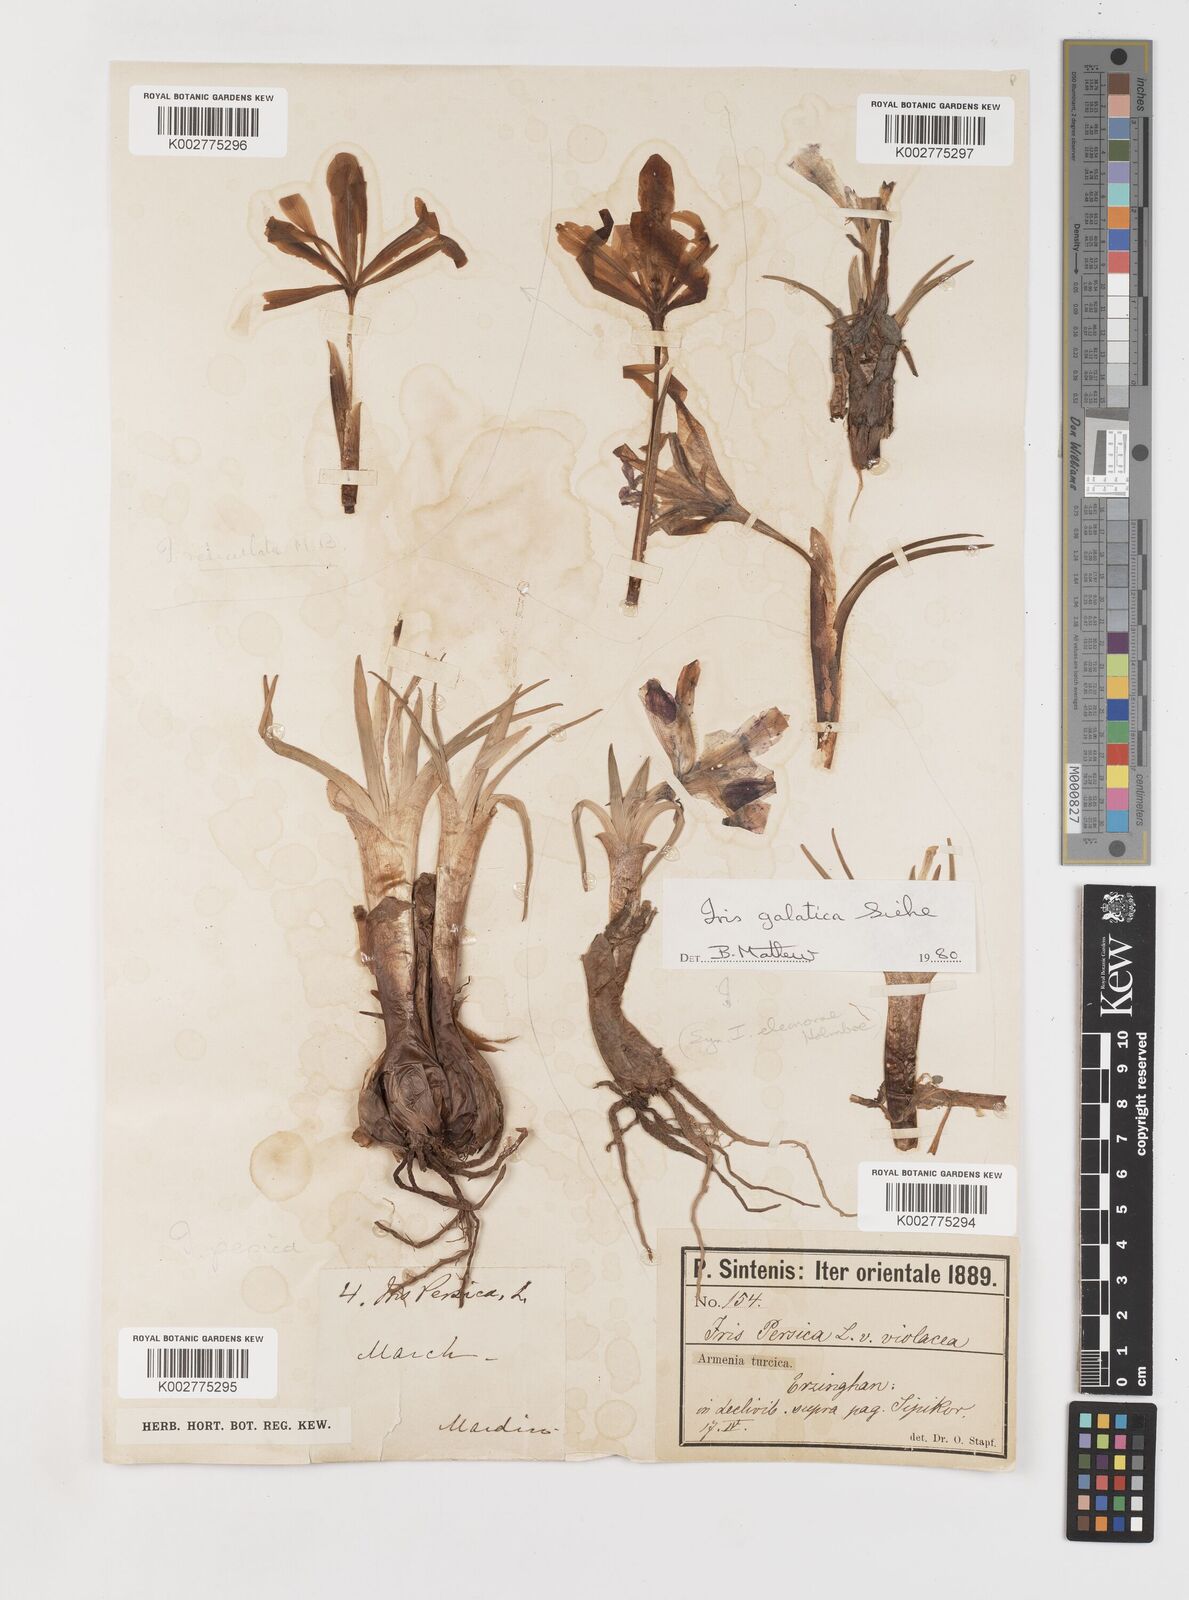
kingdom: Plantae
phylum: Tracheophyta
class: Liliopsida
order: Asparagales
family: Iridaceae
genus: Iris
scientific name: Iris galatica
